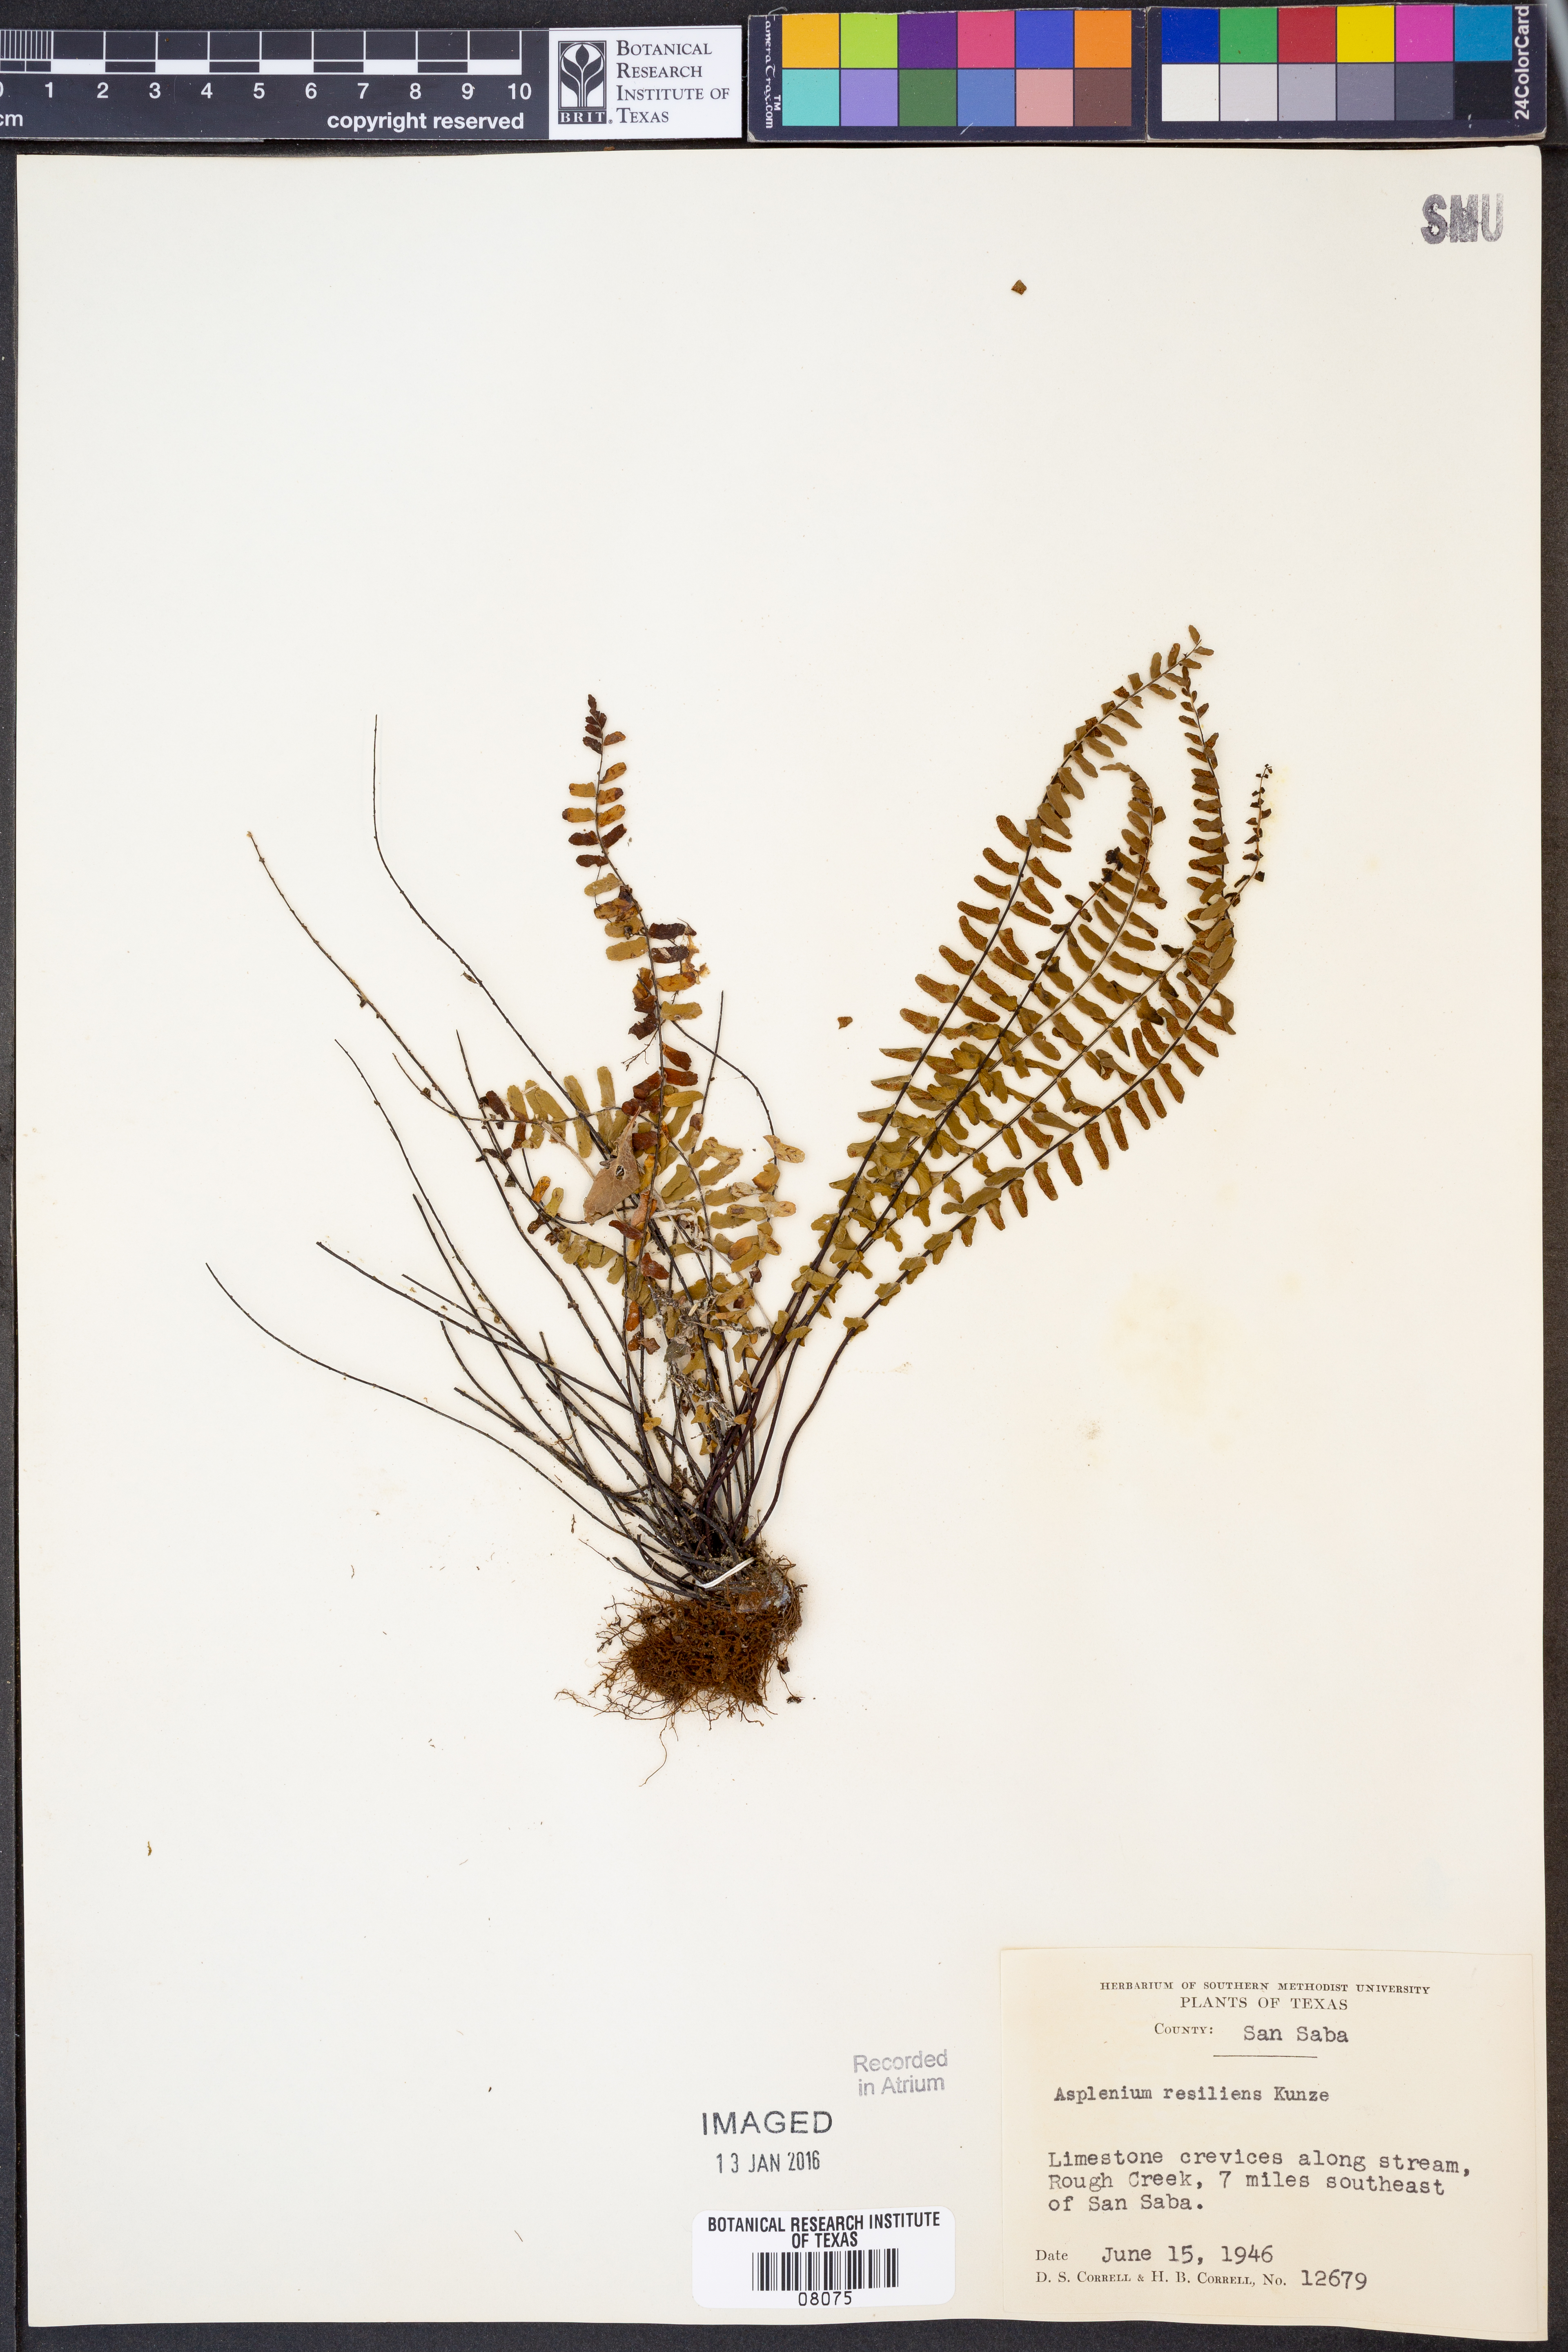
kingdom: Plantae
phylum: Tracheophyta
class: Polypodiopsida
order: Polypodiales
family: Aspleniaceae
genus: Asplenium
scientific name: Asplenium resiliens
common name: Blackstem spleenwort
